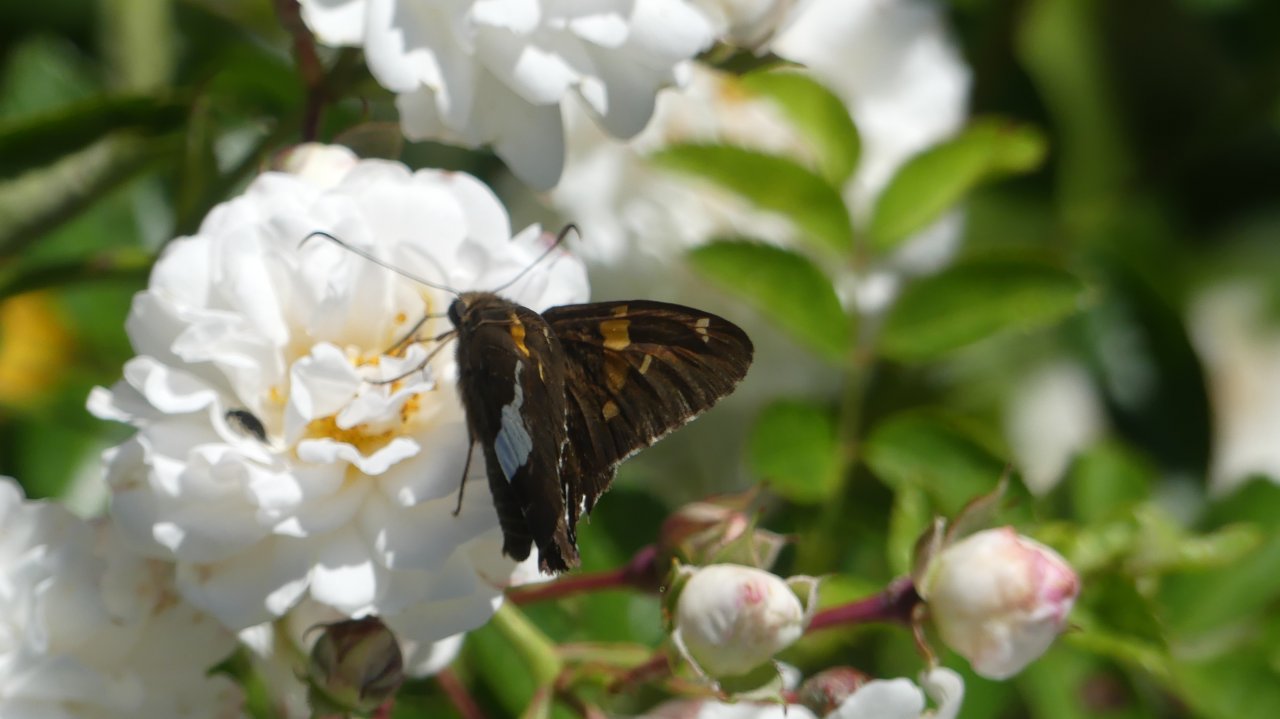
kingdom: Animalia
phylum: Arthropoda
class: Insecta
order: Lepidoptera
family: Hesperiidae
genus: Epargyreus
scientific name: Epargyreus clarus
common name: Silver-spotted Skipper
